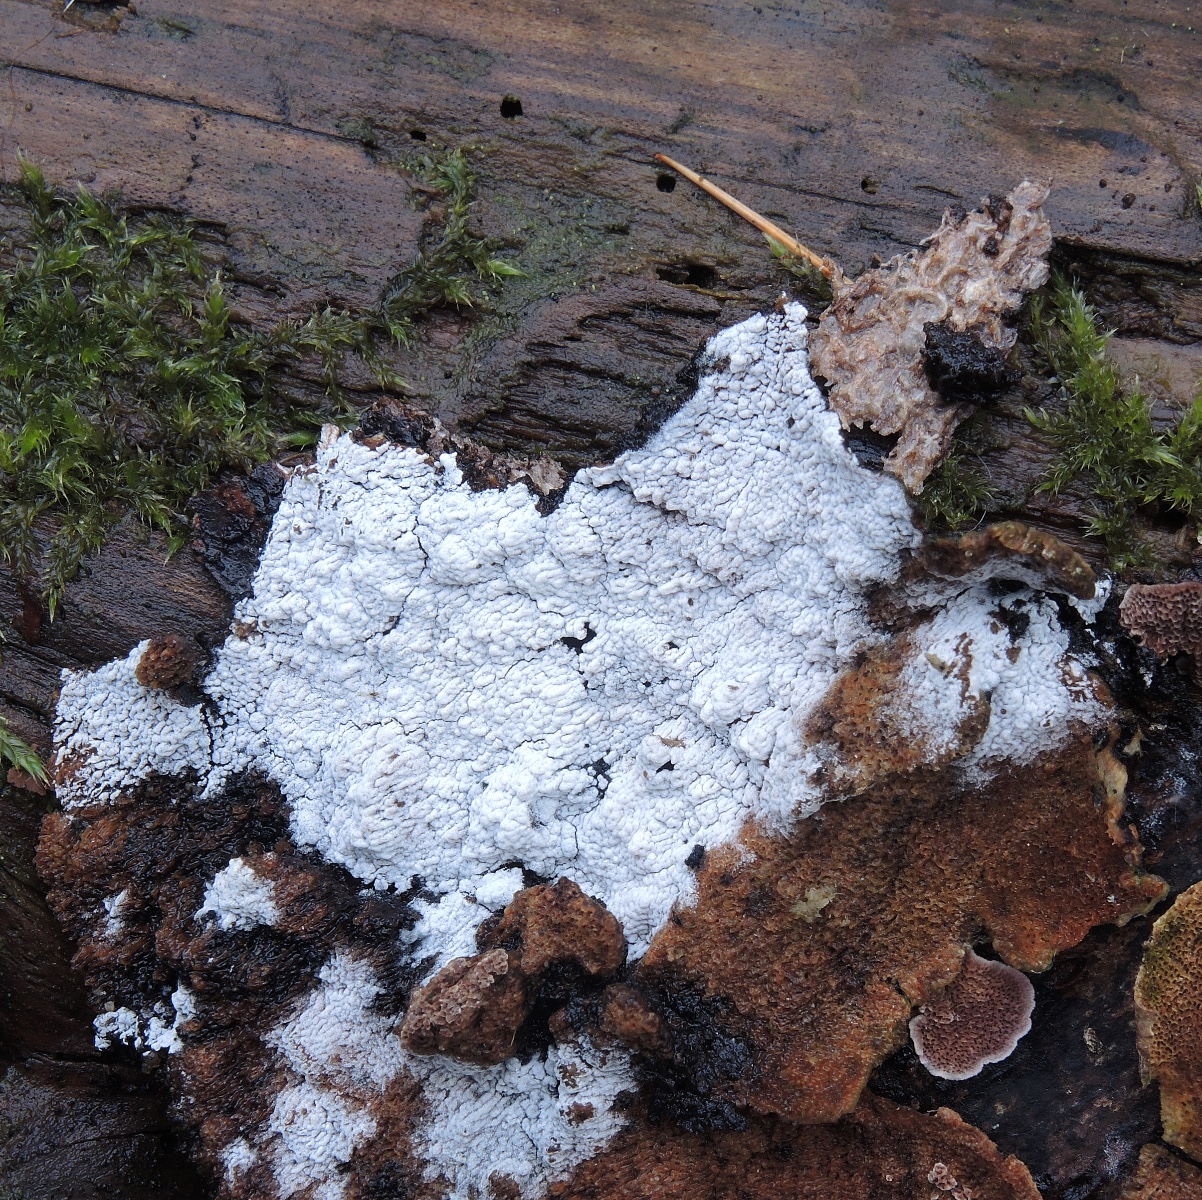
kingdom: Fungi
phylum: Basidiomycota
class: Agaricomycetes
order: Cantharellales
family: Hydnaceae
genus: Sistotrema
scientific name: Sistotrema brinkmannii
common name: bønnesporet kroneskorpe
